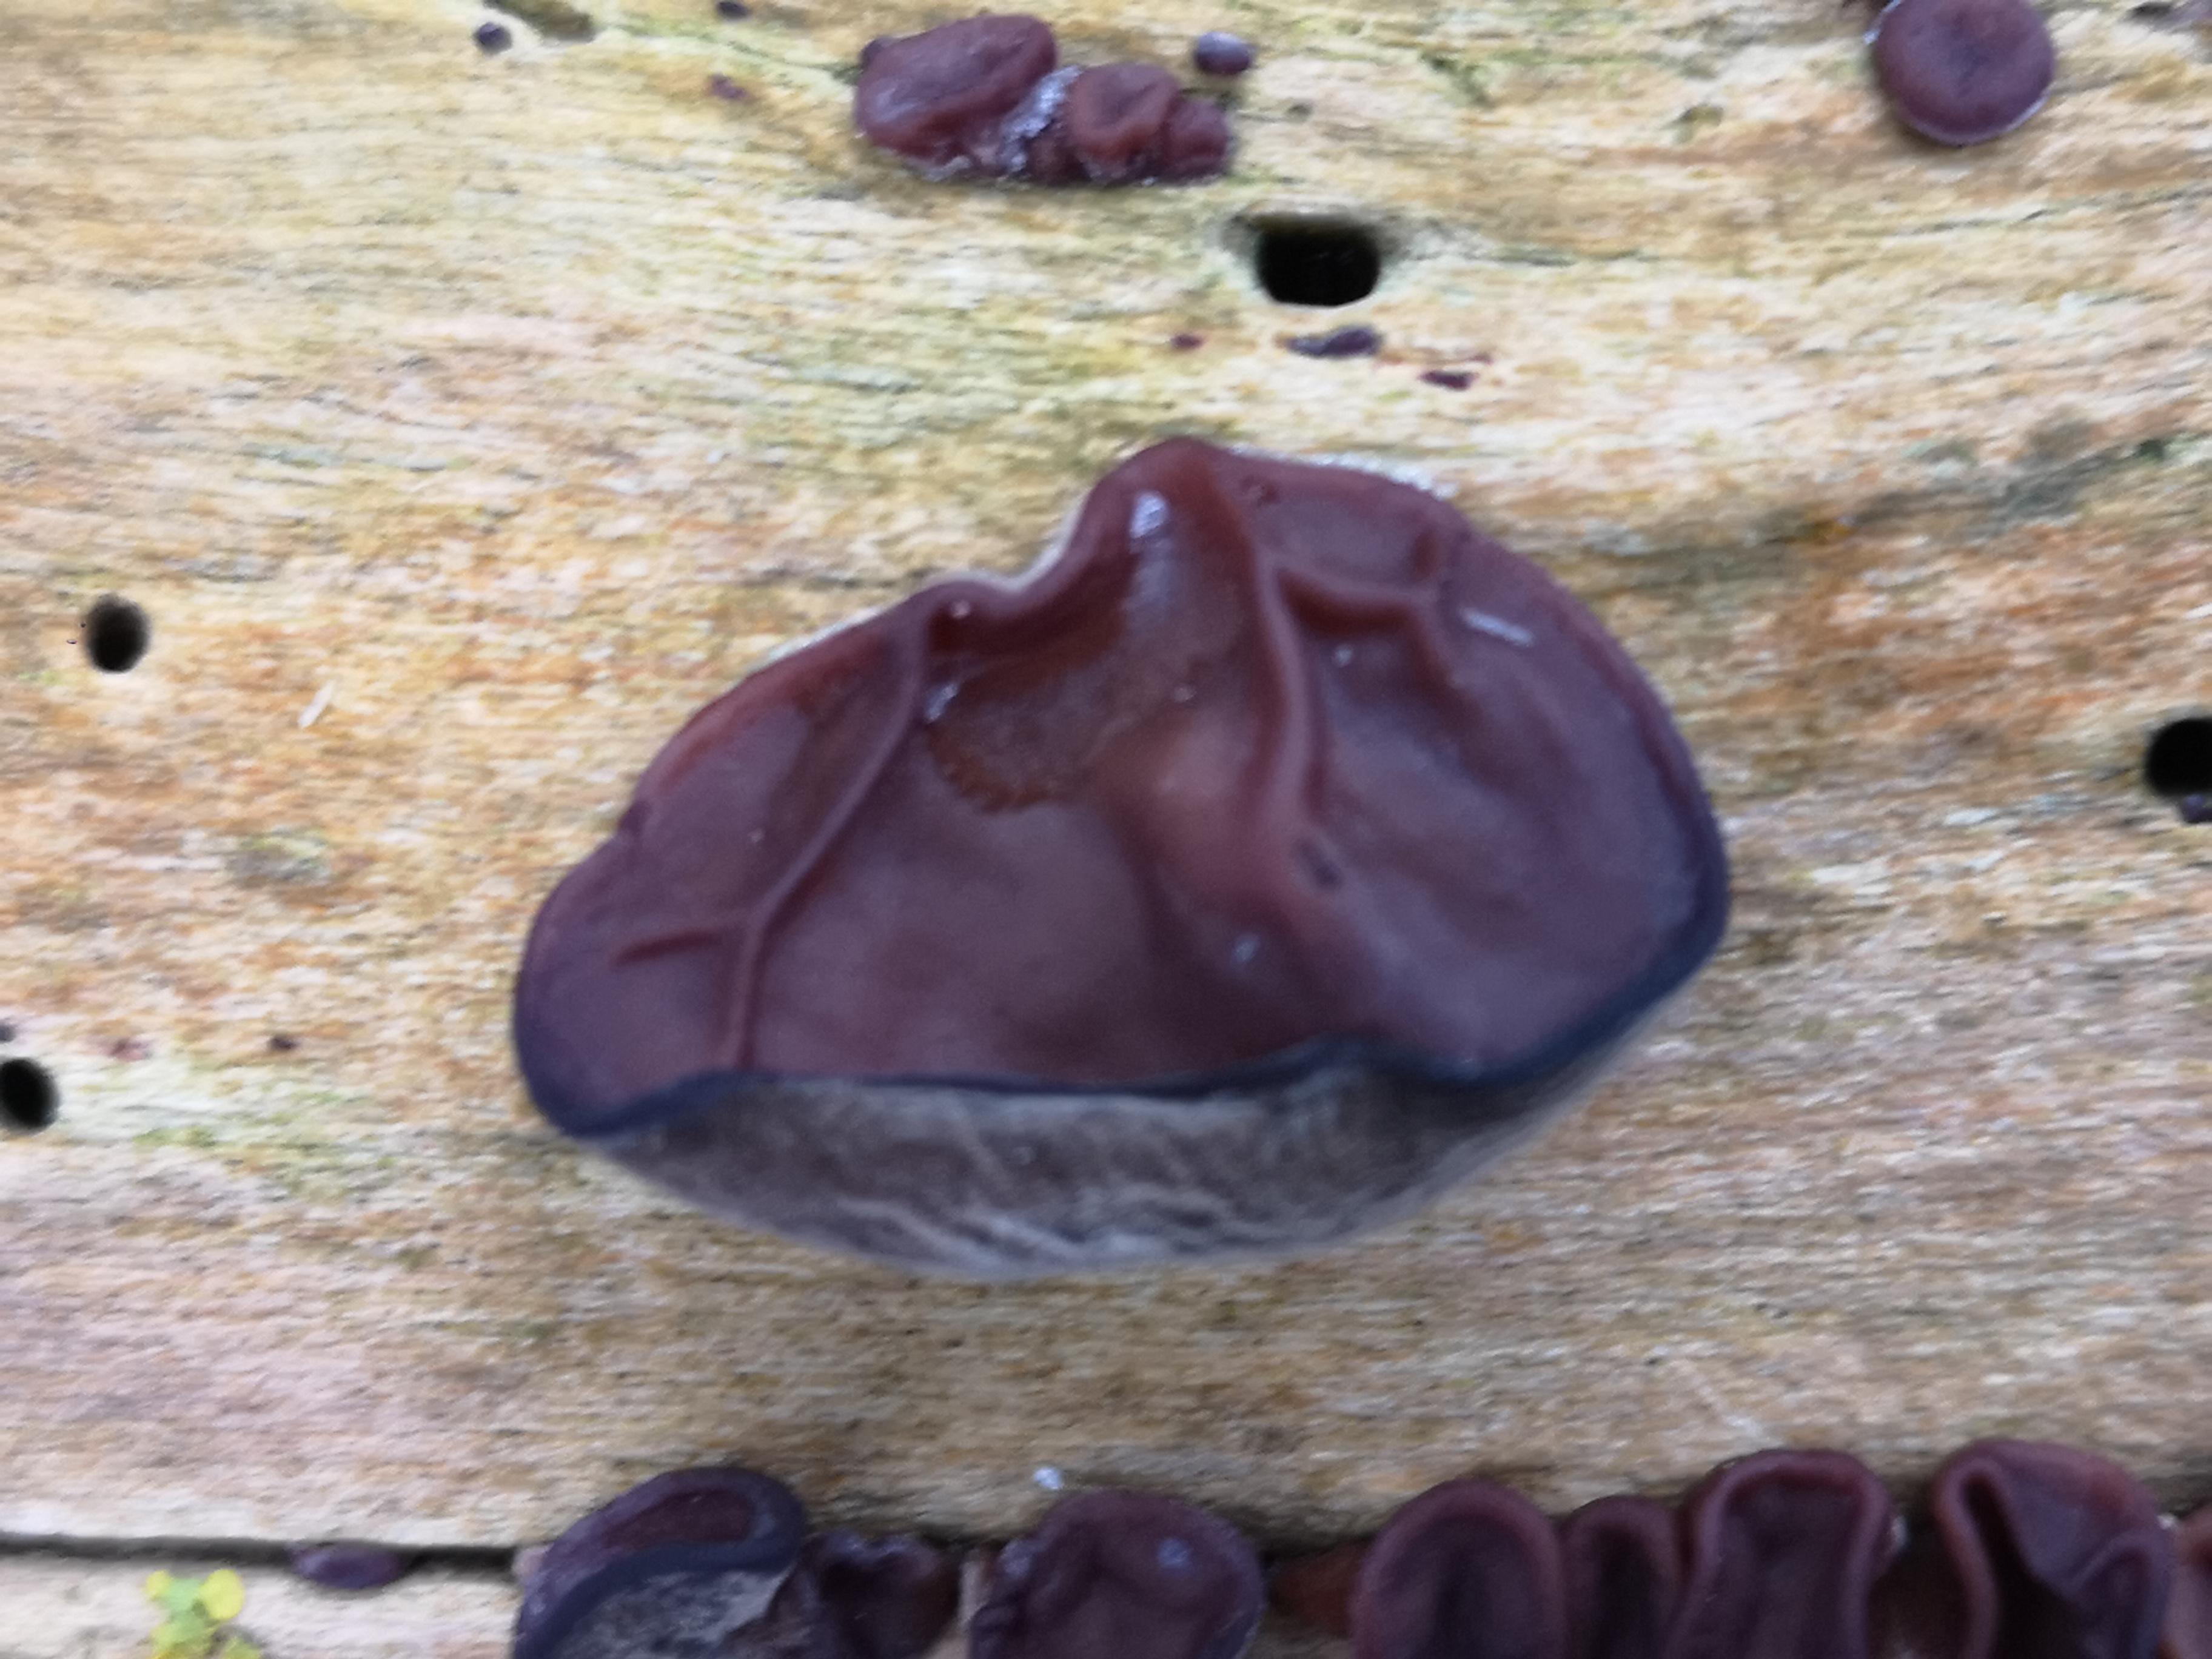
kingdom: Fungi
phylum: Basidiomycota
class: Agaricomycetes
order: Auriculariales
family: Auriculariaceae
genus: Auricularia
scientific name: Auricularia auricula-judae
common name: almindelig judasøre
